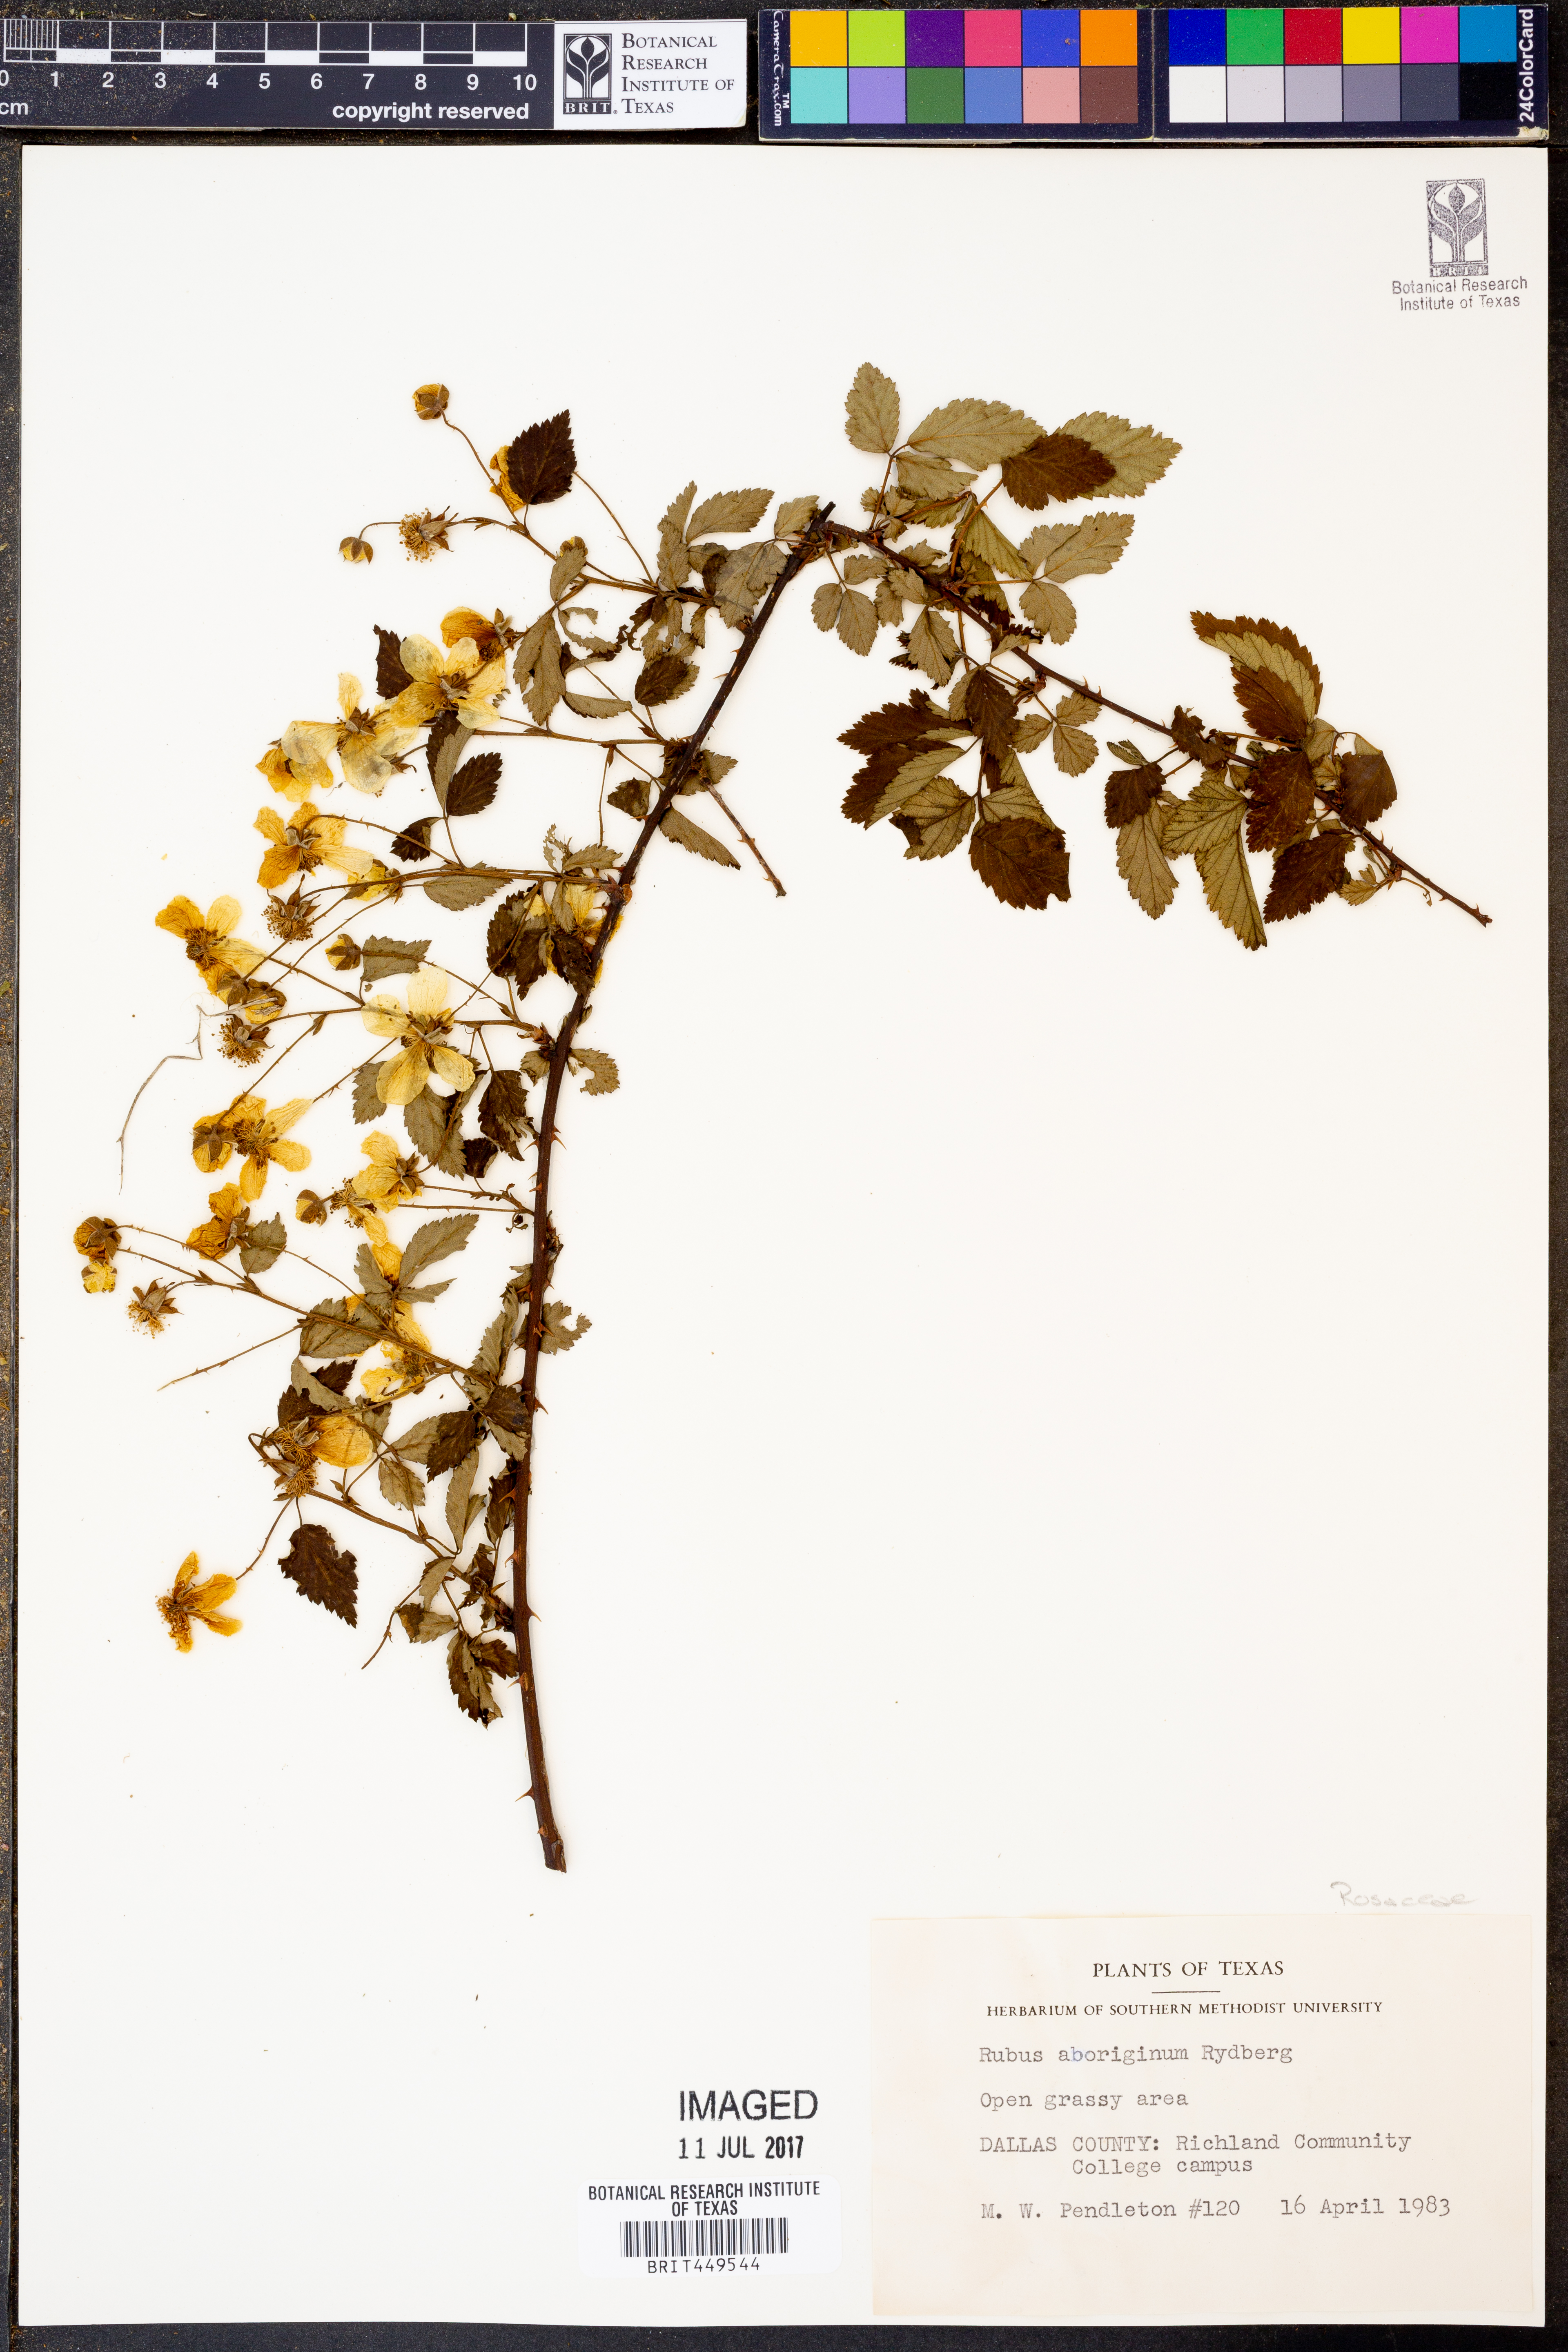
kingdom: Plantae
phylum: Tracheophyta
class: Magnoliopsida
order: Rosales
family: Rosaceae
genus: Rubus
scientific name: Rubus aboriginum
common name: Mayes dewberry
